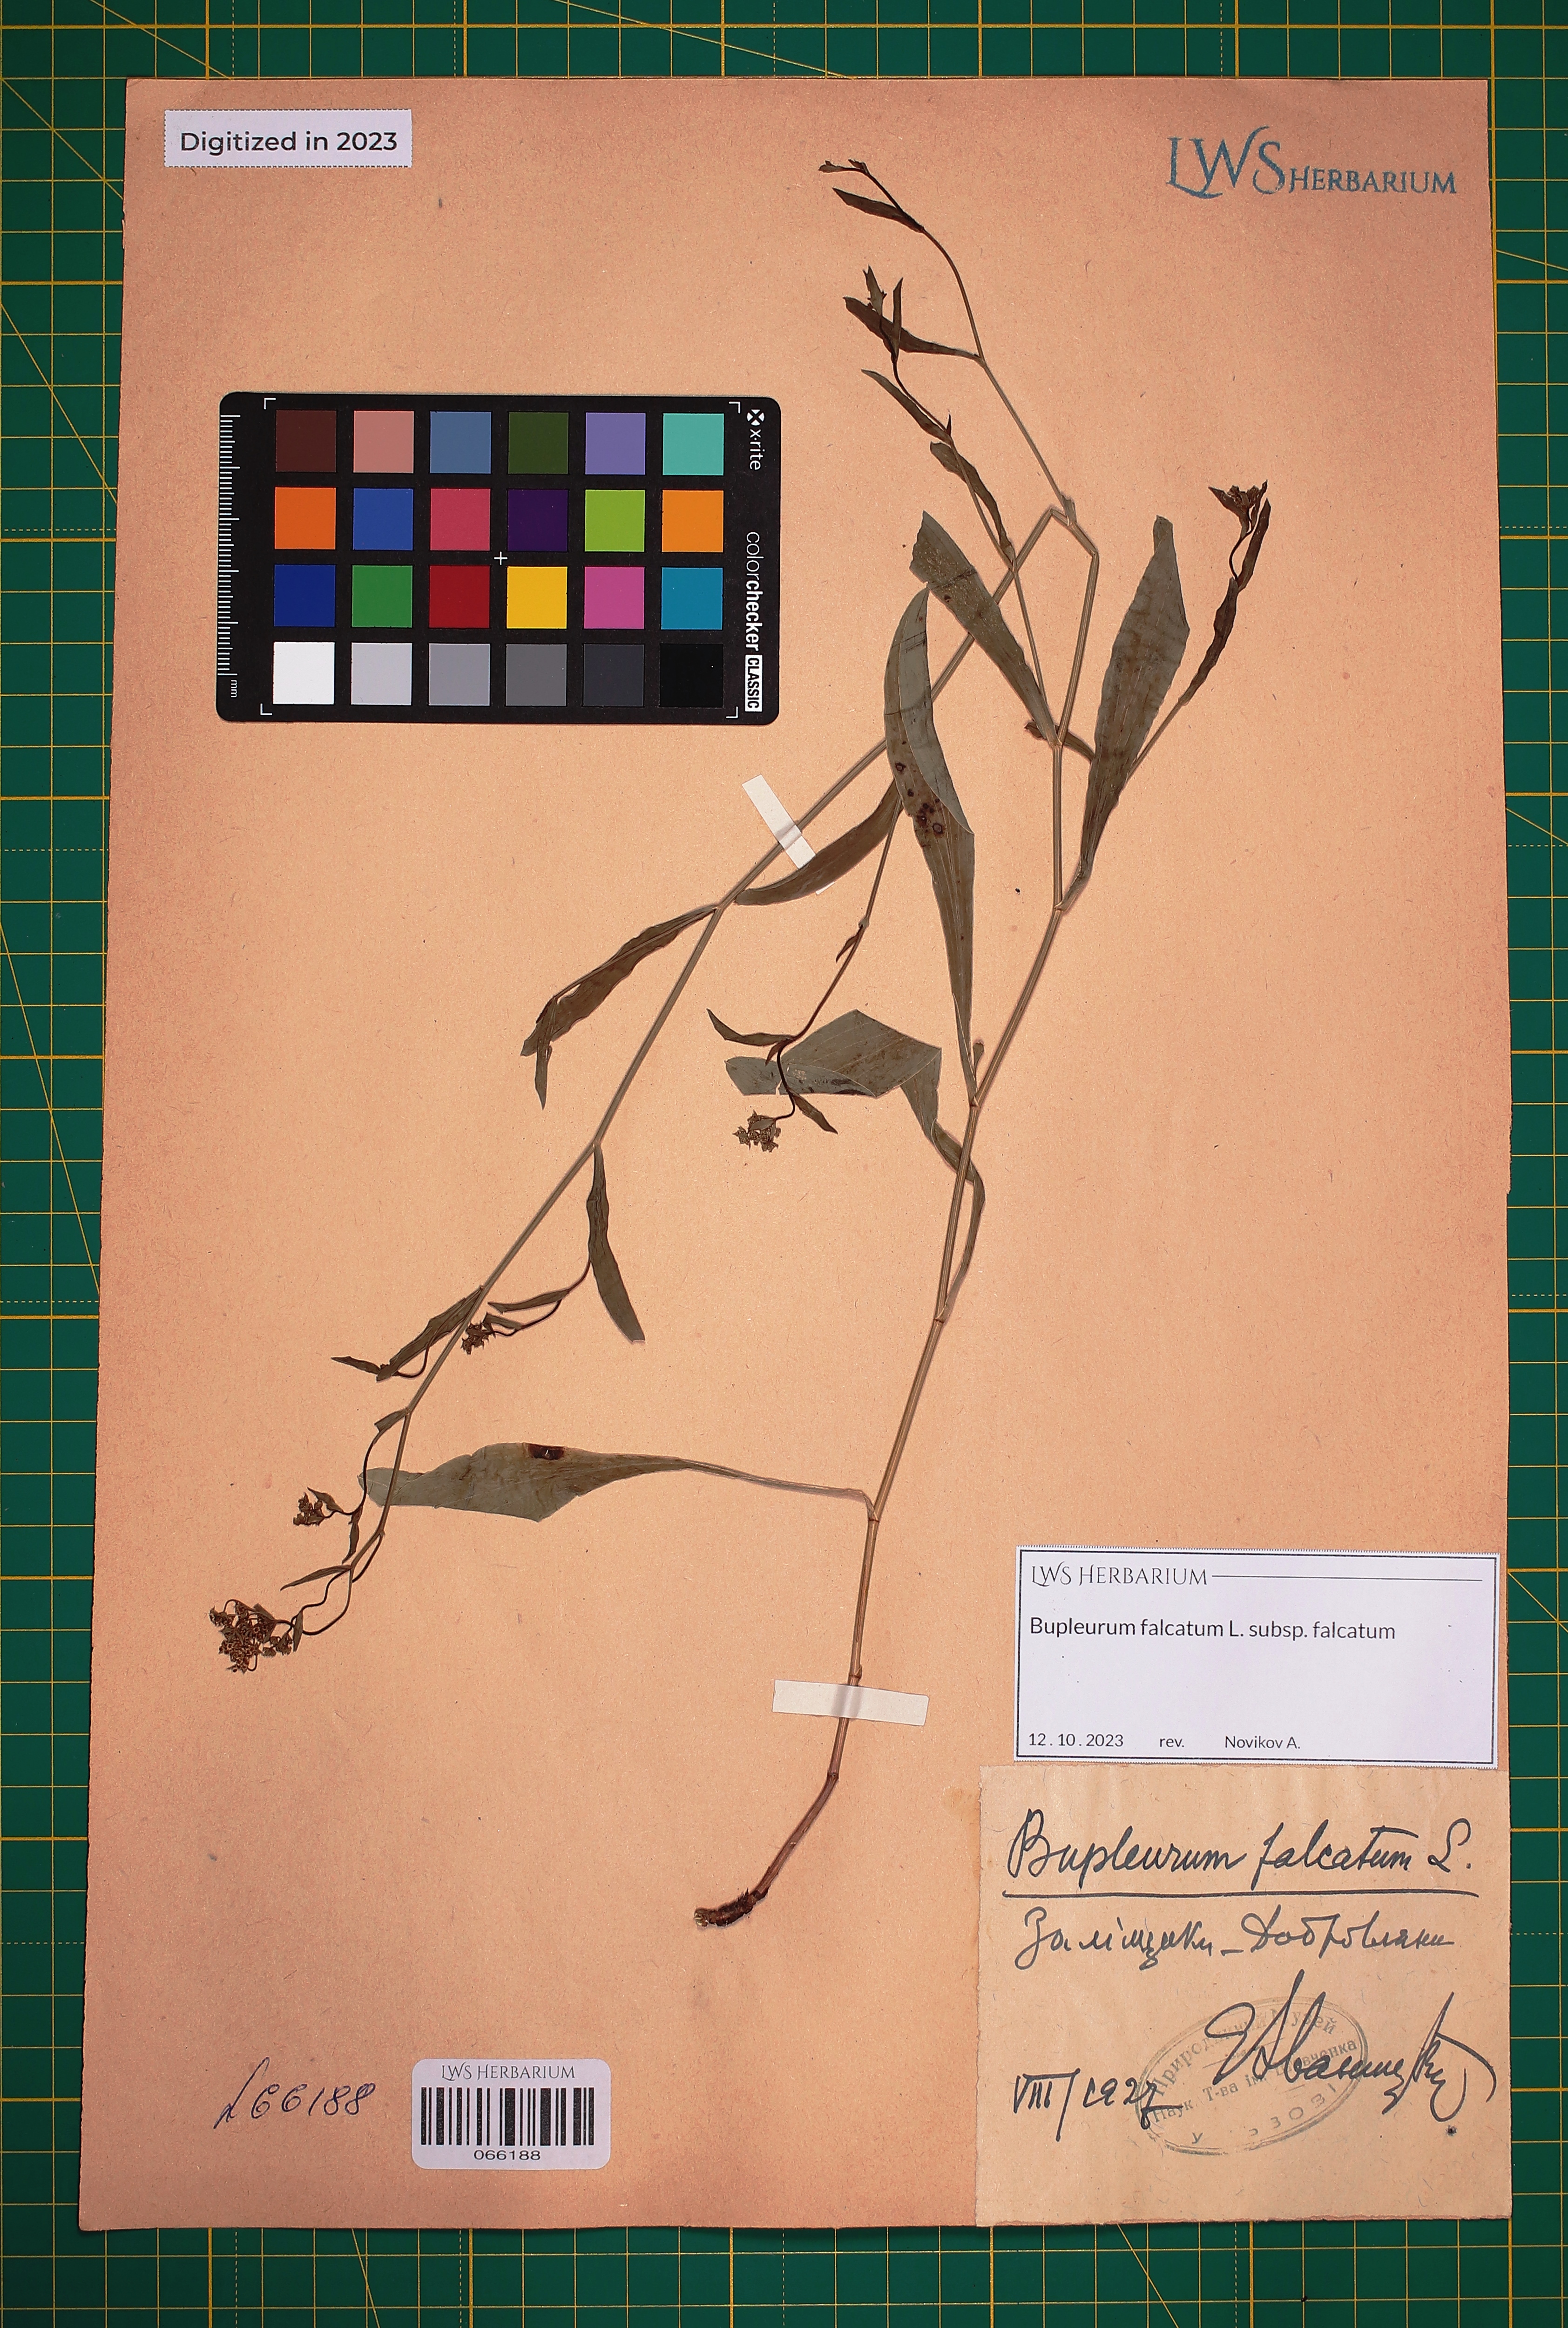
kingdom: Plantae
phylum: Tracheophyta
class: Magnoliopsida
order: Apiales
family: Apiaceae
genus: Bupleurum
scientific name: Bupleurum falcatum
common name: Sickle-leaved hare's-ear
